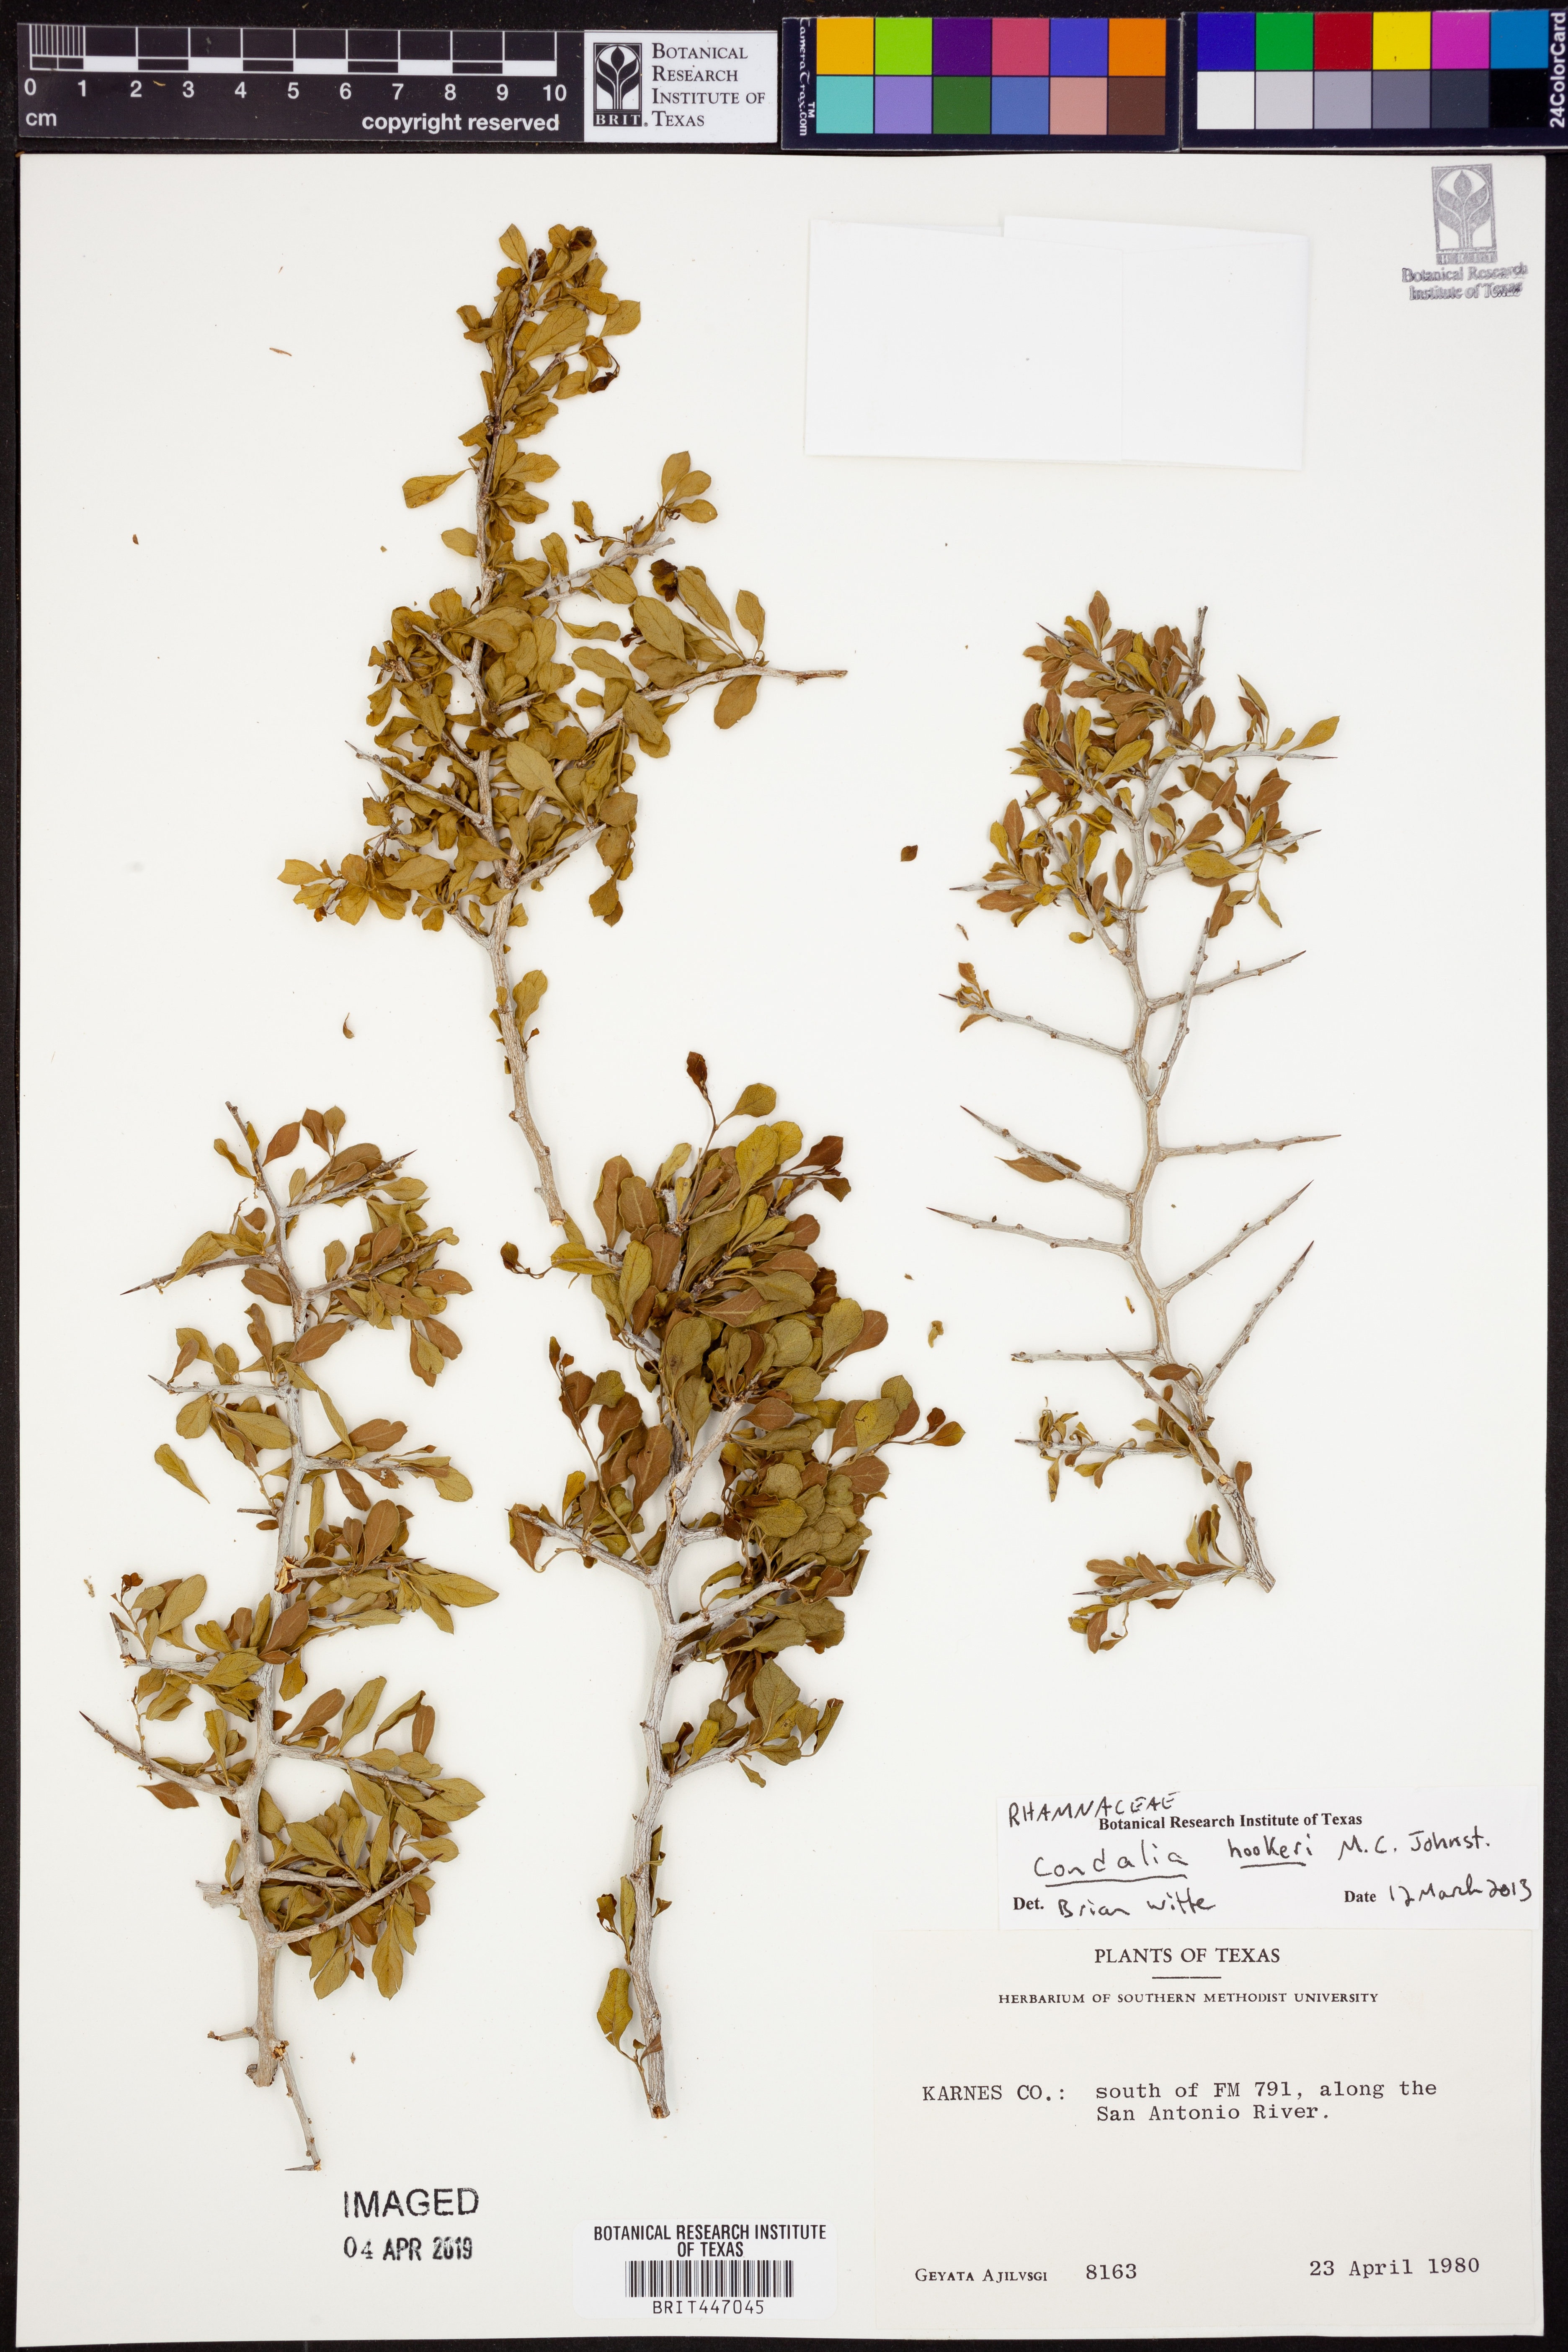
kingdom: Plantae
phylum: Tracheophyta
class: Magnoliopsida
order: Rosales
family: Rhamnaceae
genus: Condalia
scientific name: Condalia hookeri
